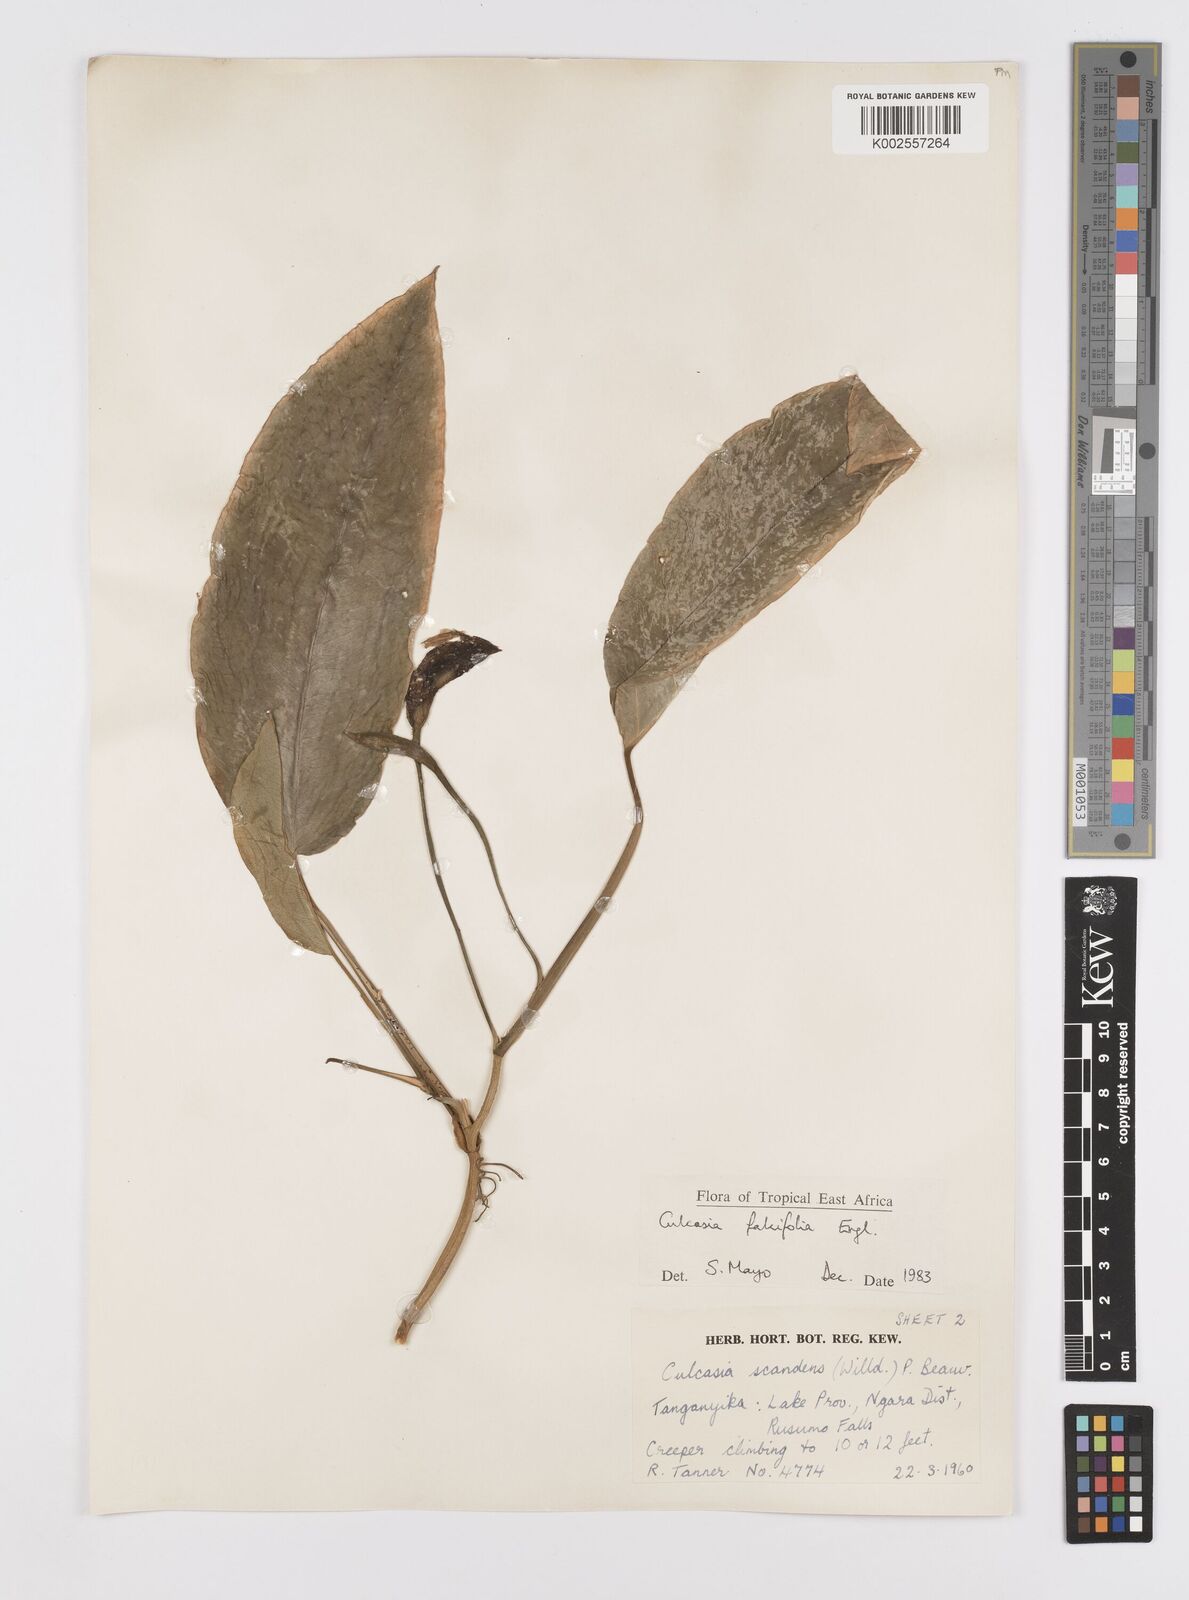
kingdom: Plantae
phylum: Tracheophyta
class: Liliopsida
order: Alismatales
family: Araceae
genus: Culcasia
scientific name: Culcasia falcifolia
